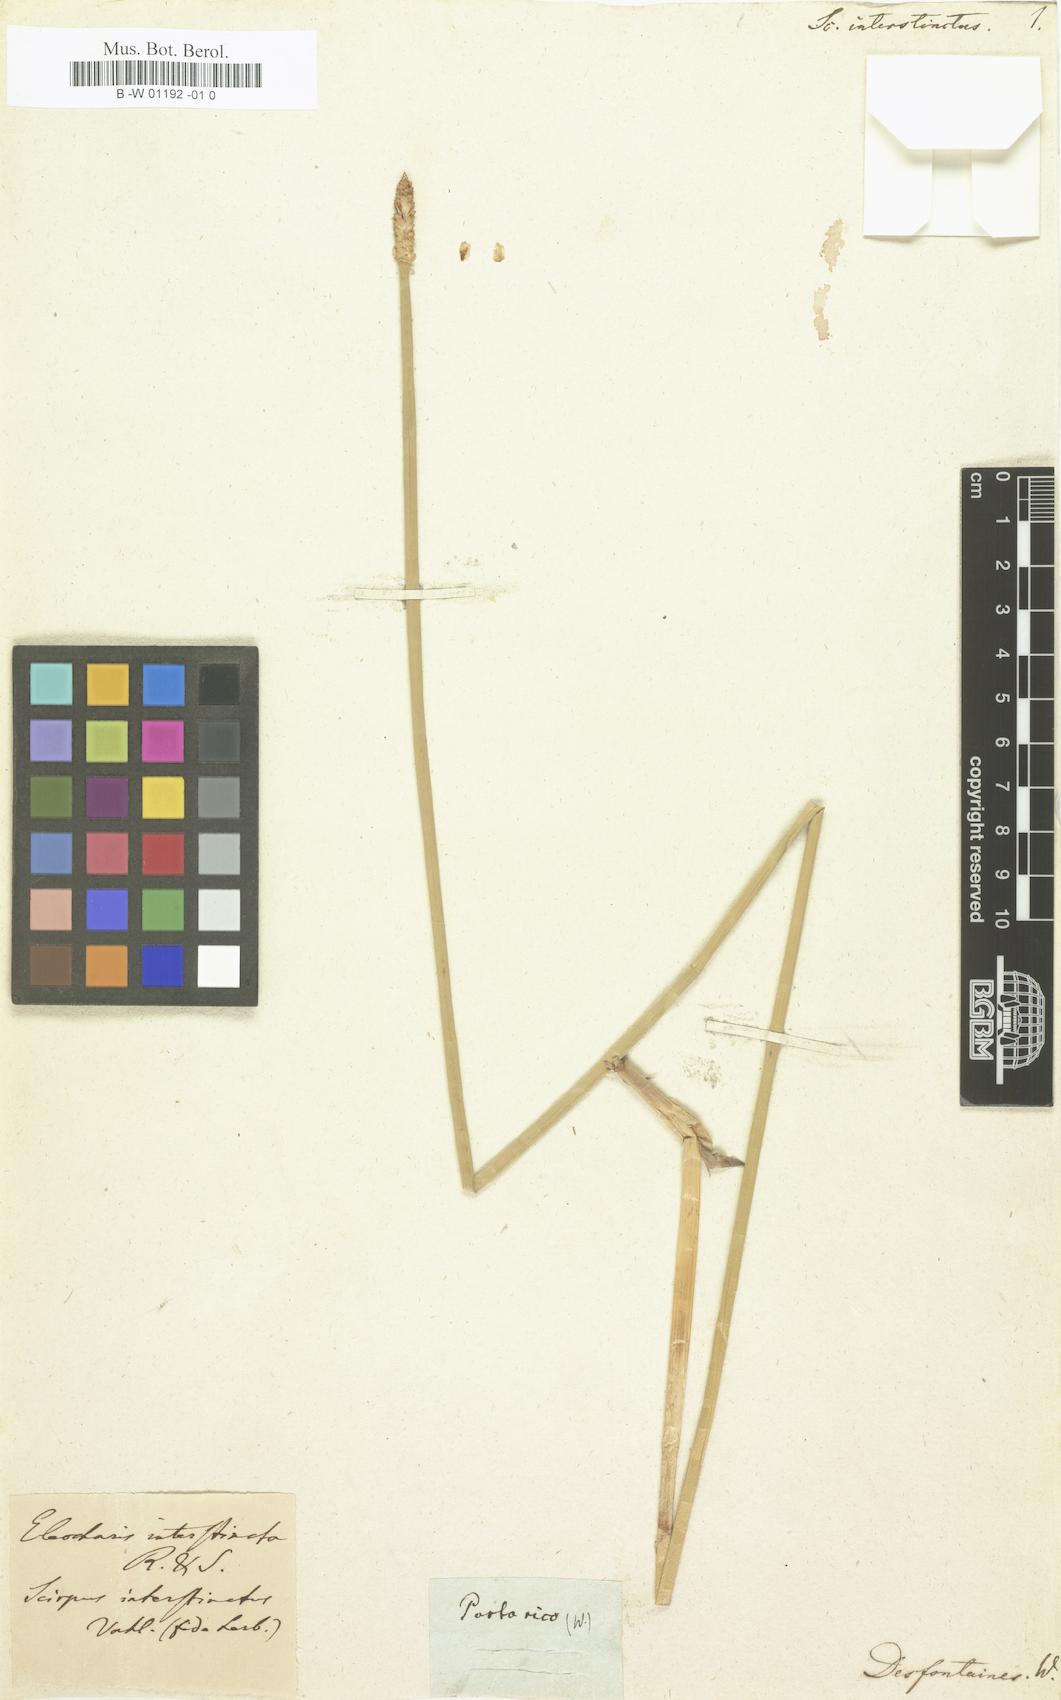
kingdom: Plantae
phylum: Tracheophyta
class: Liliopsida
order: Poales
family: Cyperaceae
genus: Eleocharis
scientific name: Eleocharis interstincta
